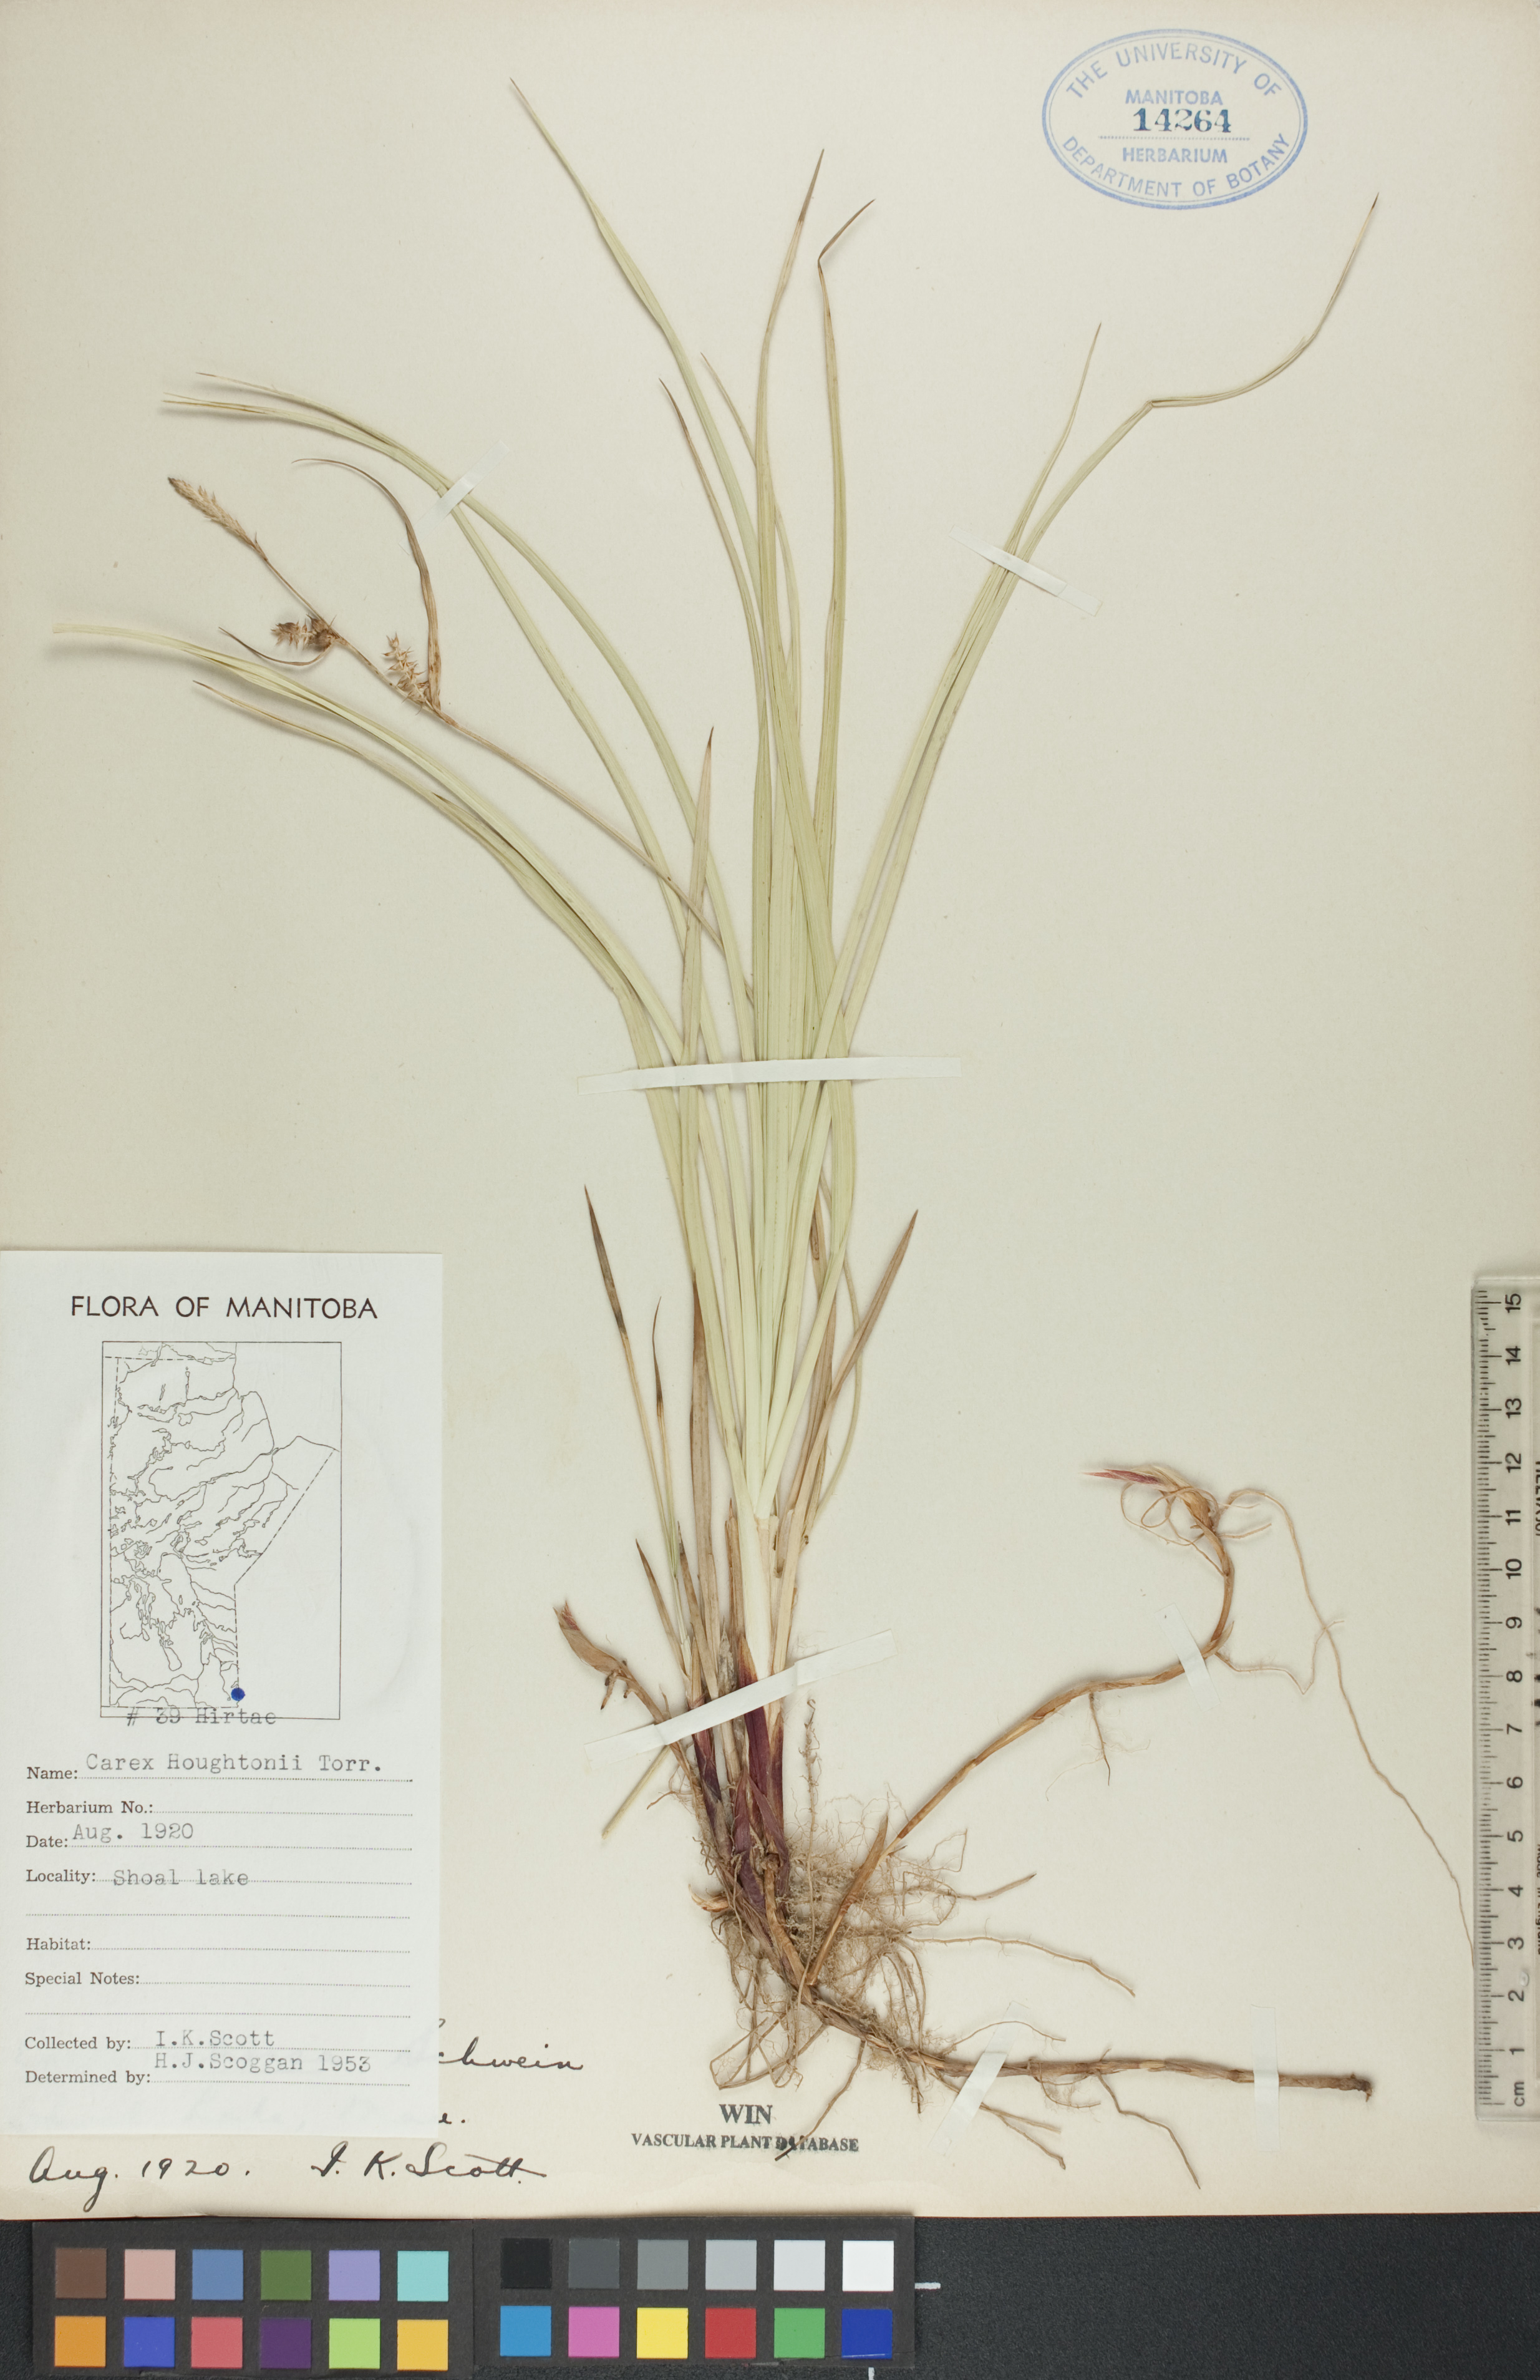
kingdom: Plantae
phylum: Tracheophyta
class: Liliopsida
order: Poales
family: Cyperaceae
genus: Carex
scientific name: Carex houghtoniana
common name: Houghton's sedge
